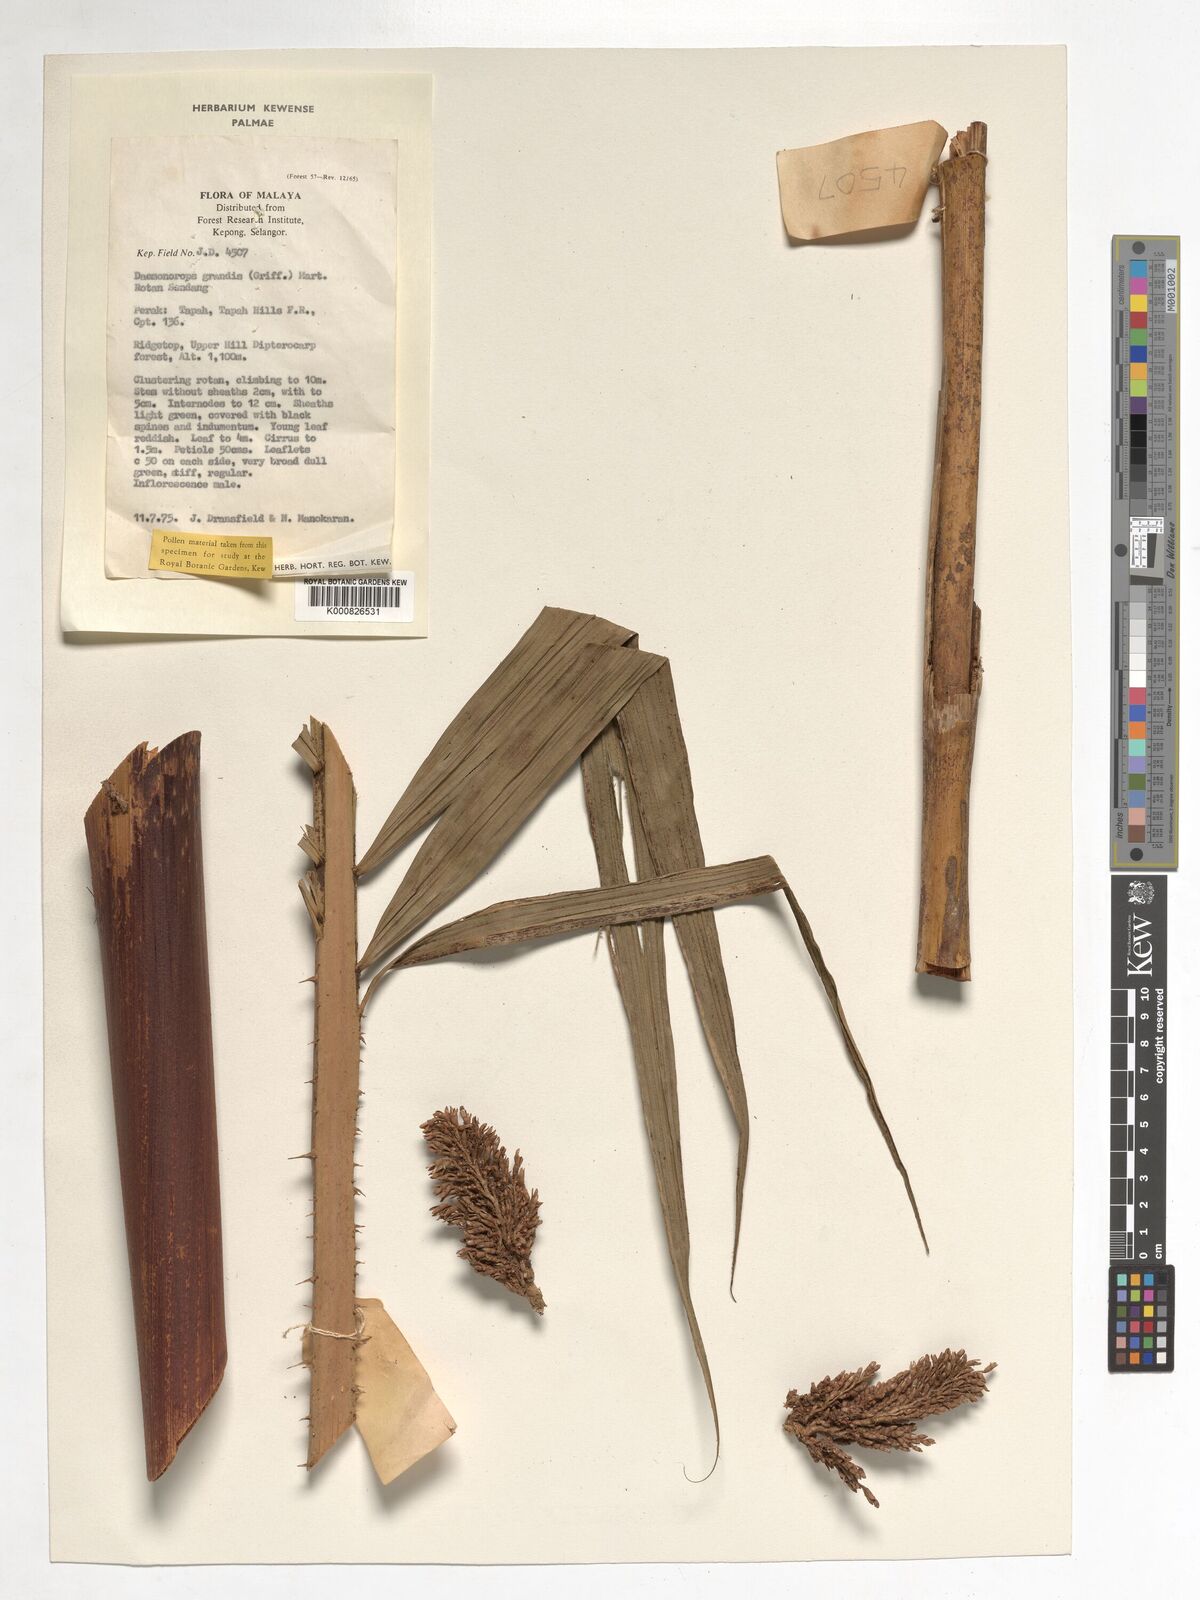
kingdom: Plantae
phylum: Tracheophyta
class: Liliopsida
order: Arecales
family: Arecaceae
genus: Calamus
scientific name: Calamus melanochaetes
